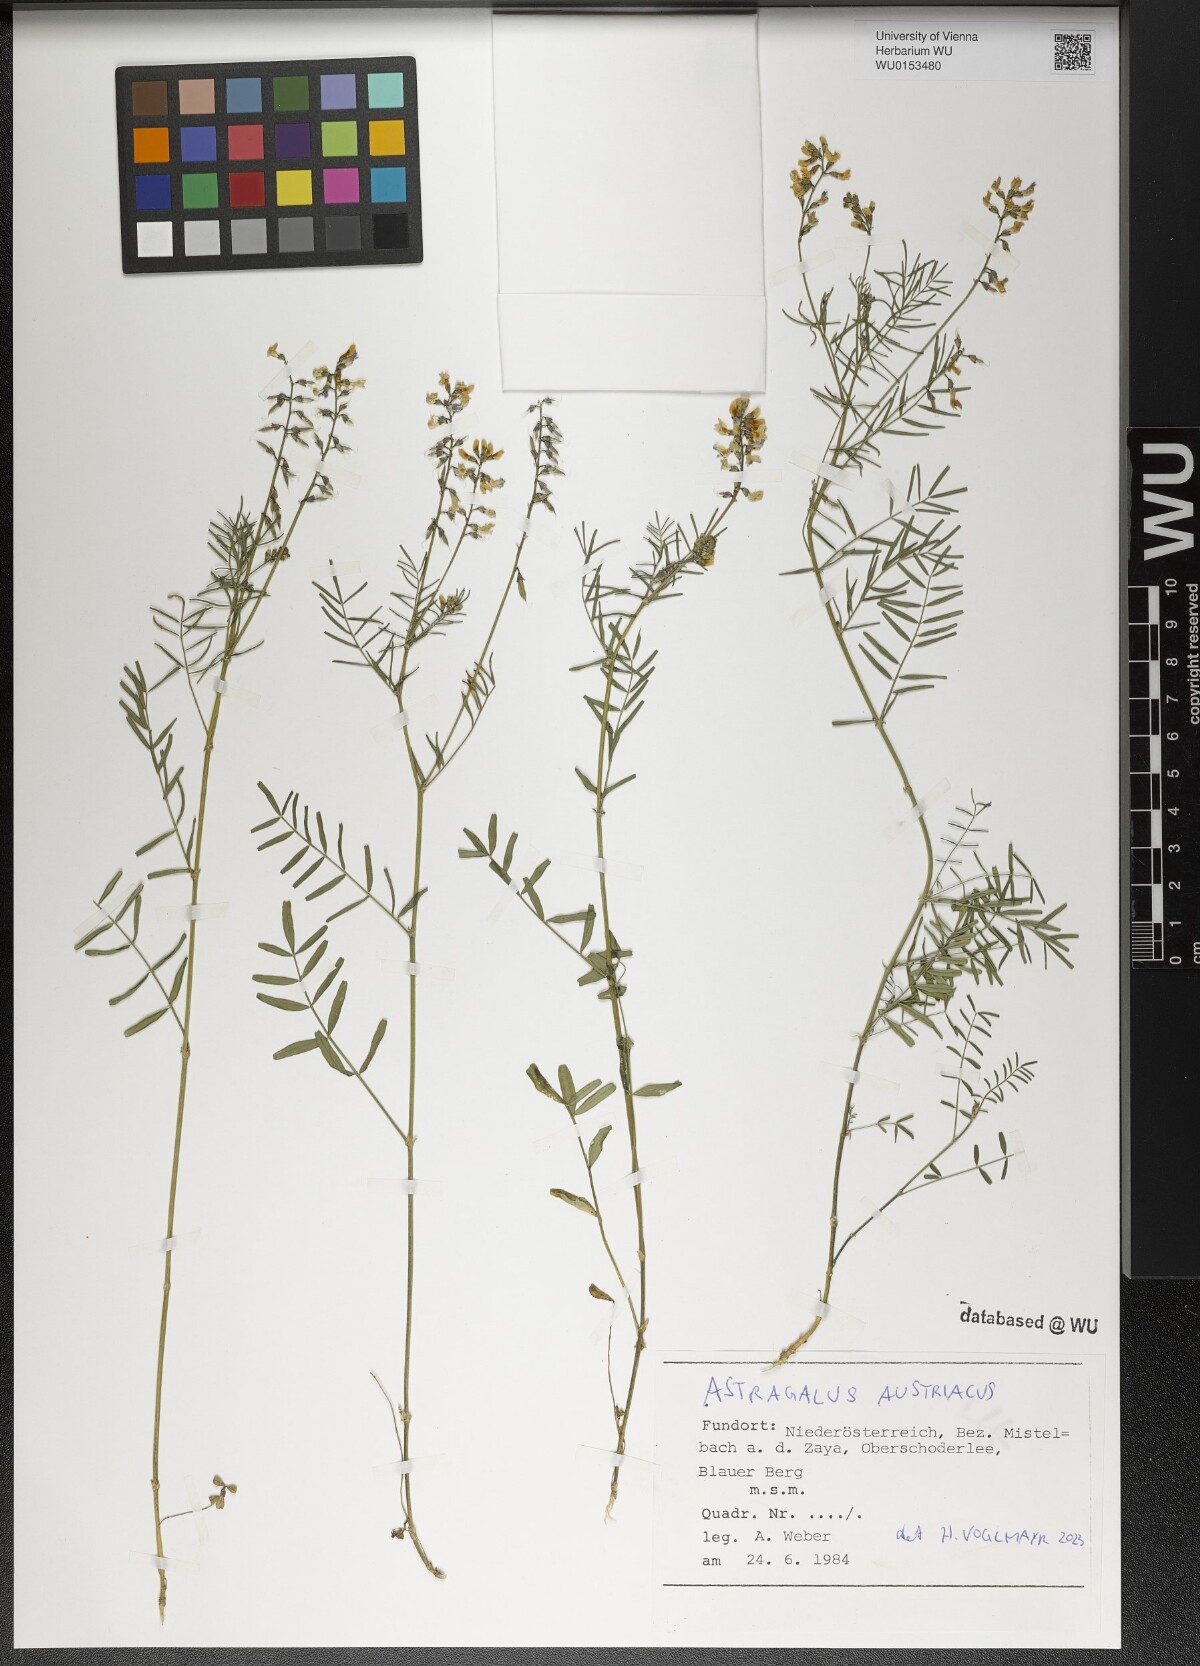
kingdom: Plantae
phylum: Tracheophyta
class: Magnoliopsida
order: Fabales
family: Fabaceae
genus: Astragalus
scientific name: Astragalus austriacus
